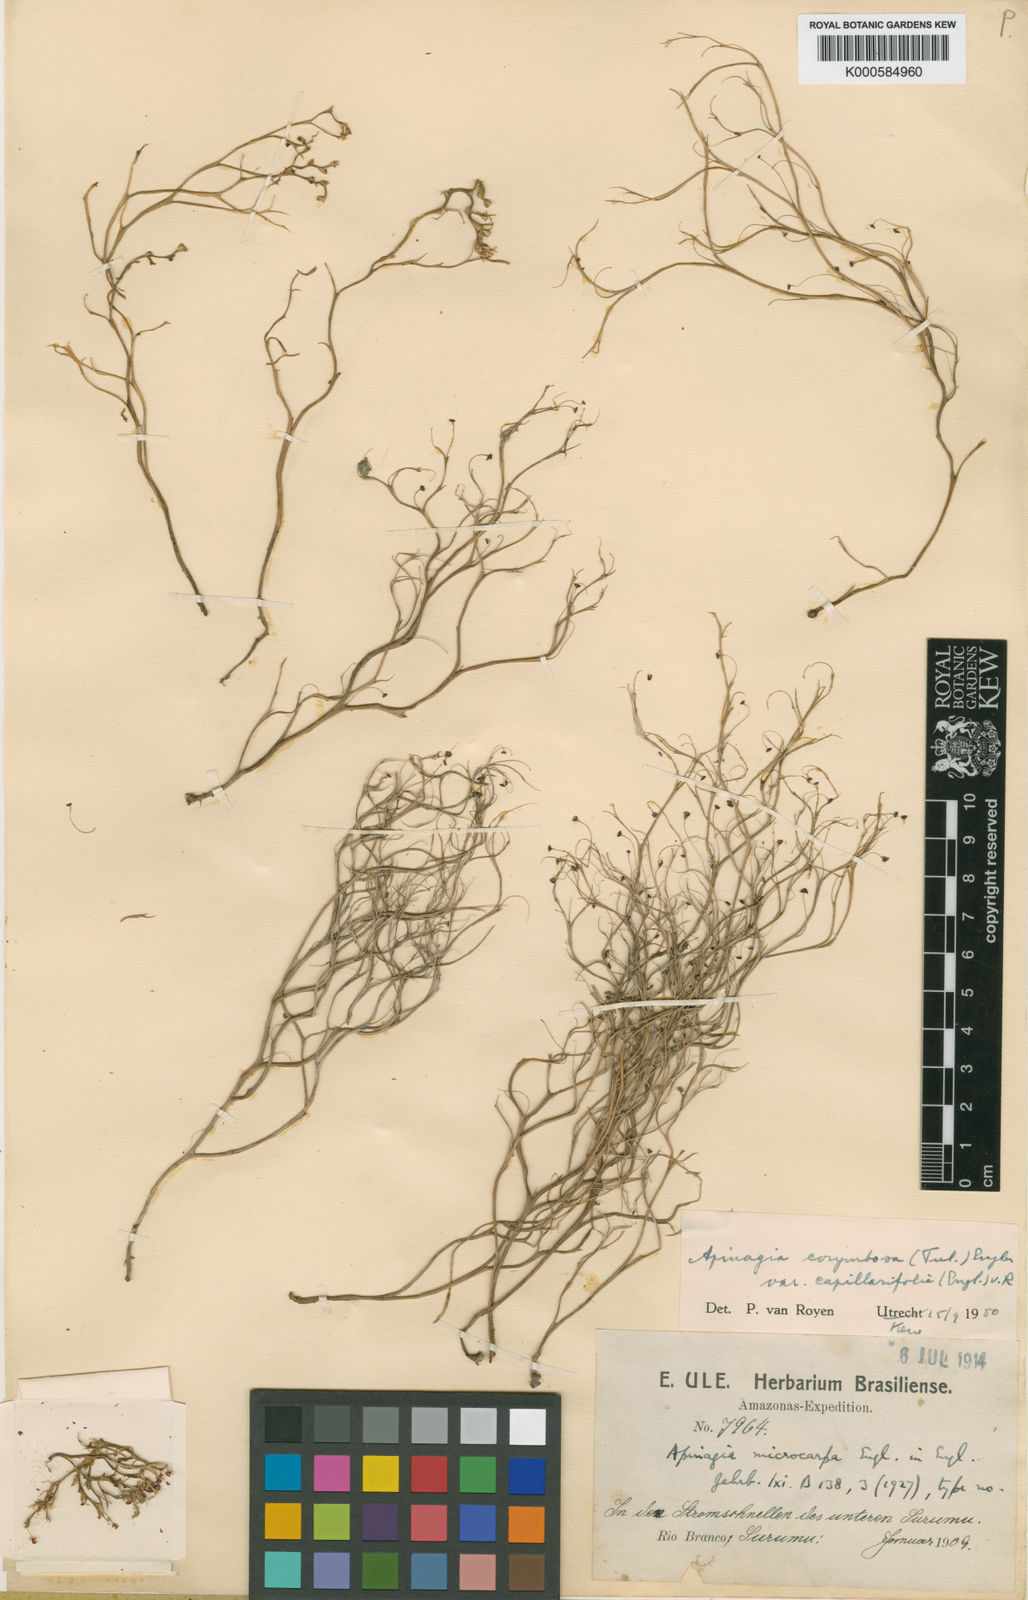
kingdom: Plantae
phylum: Tracheophyta
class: Magnoliopsida
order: Malpighiales
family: Podostemaceae
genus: Apinagia
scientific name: Apinagia corymbosa
